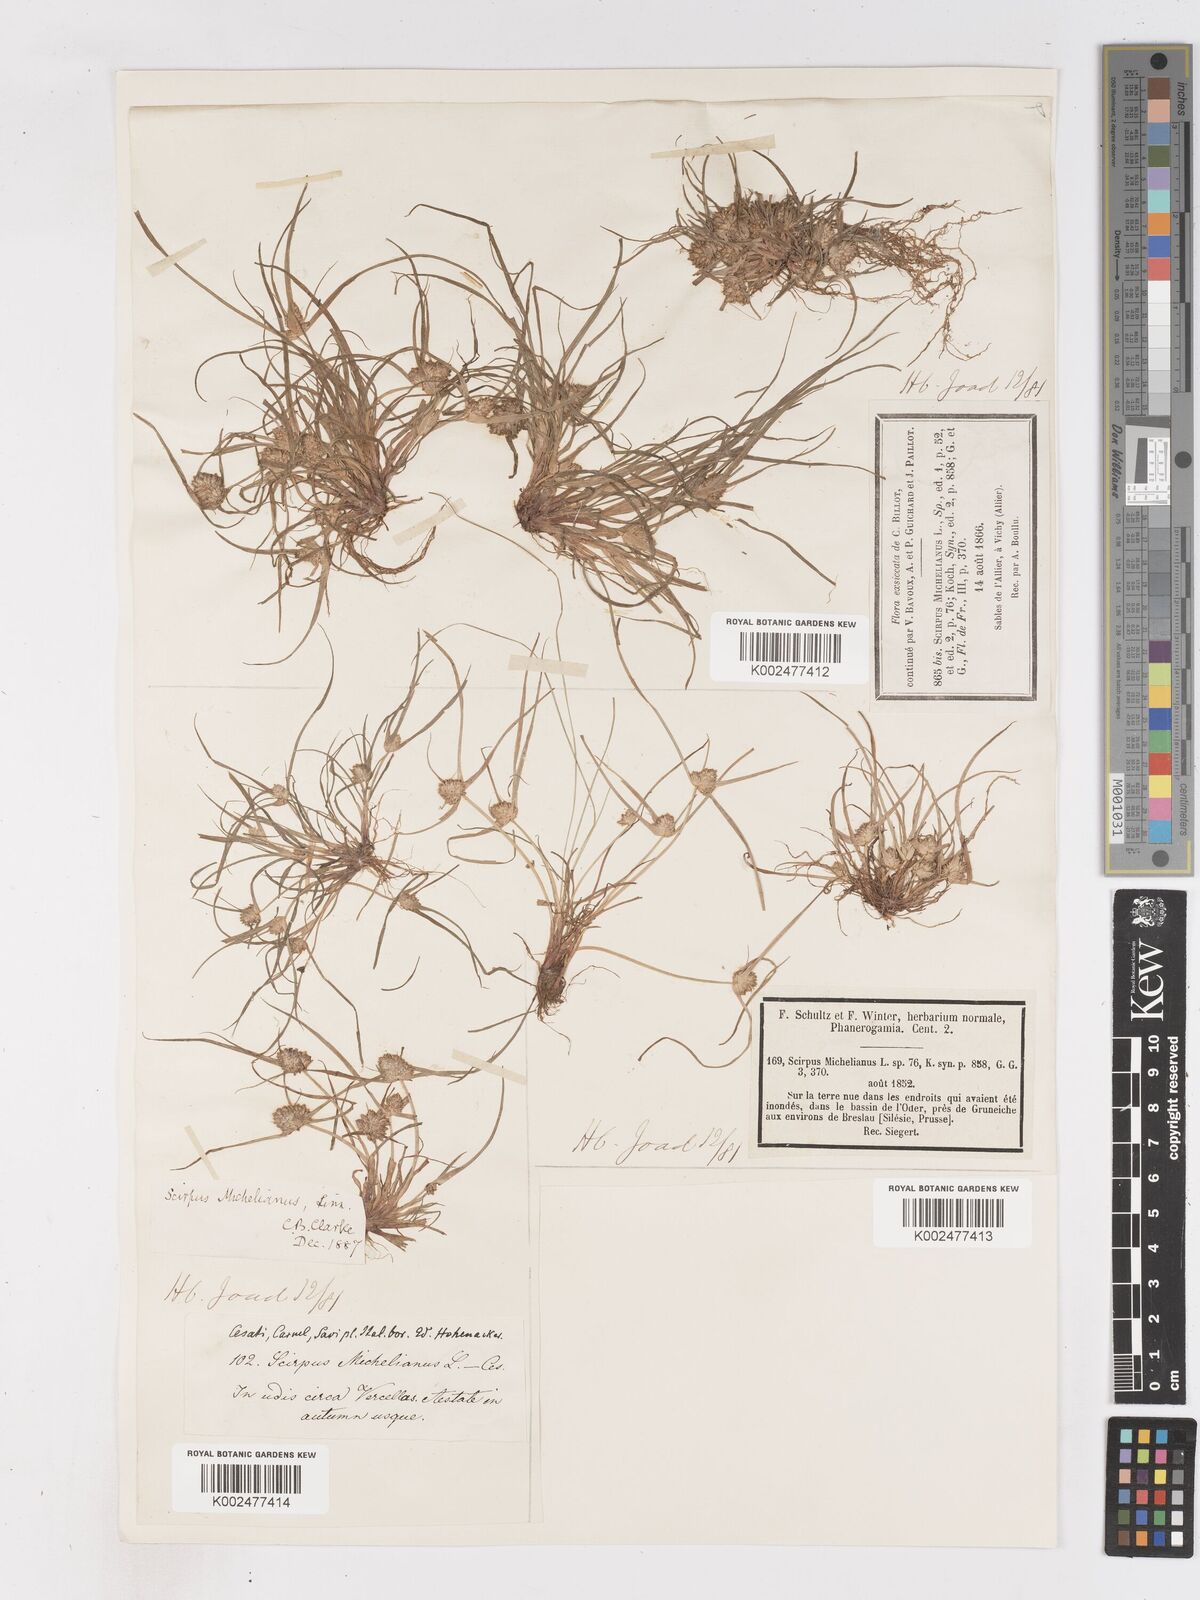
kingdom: Plantae
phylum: Tracheophyta
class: Liliopsida
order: Poales
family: Cyperaceae
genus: Cyperus
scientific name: Cyperus michelianus
